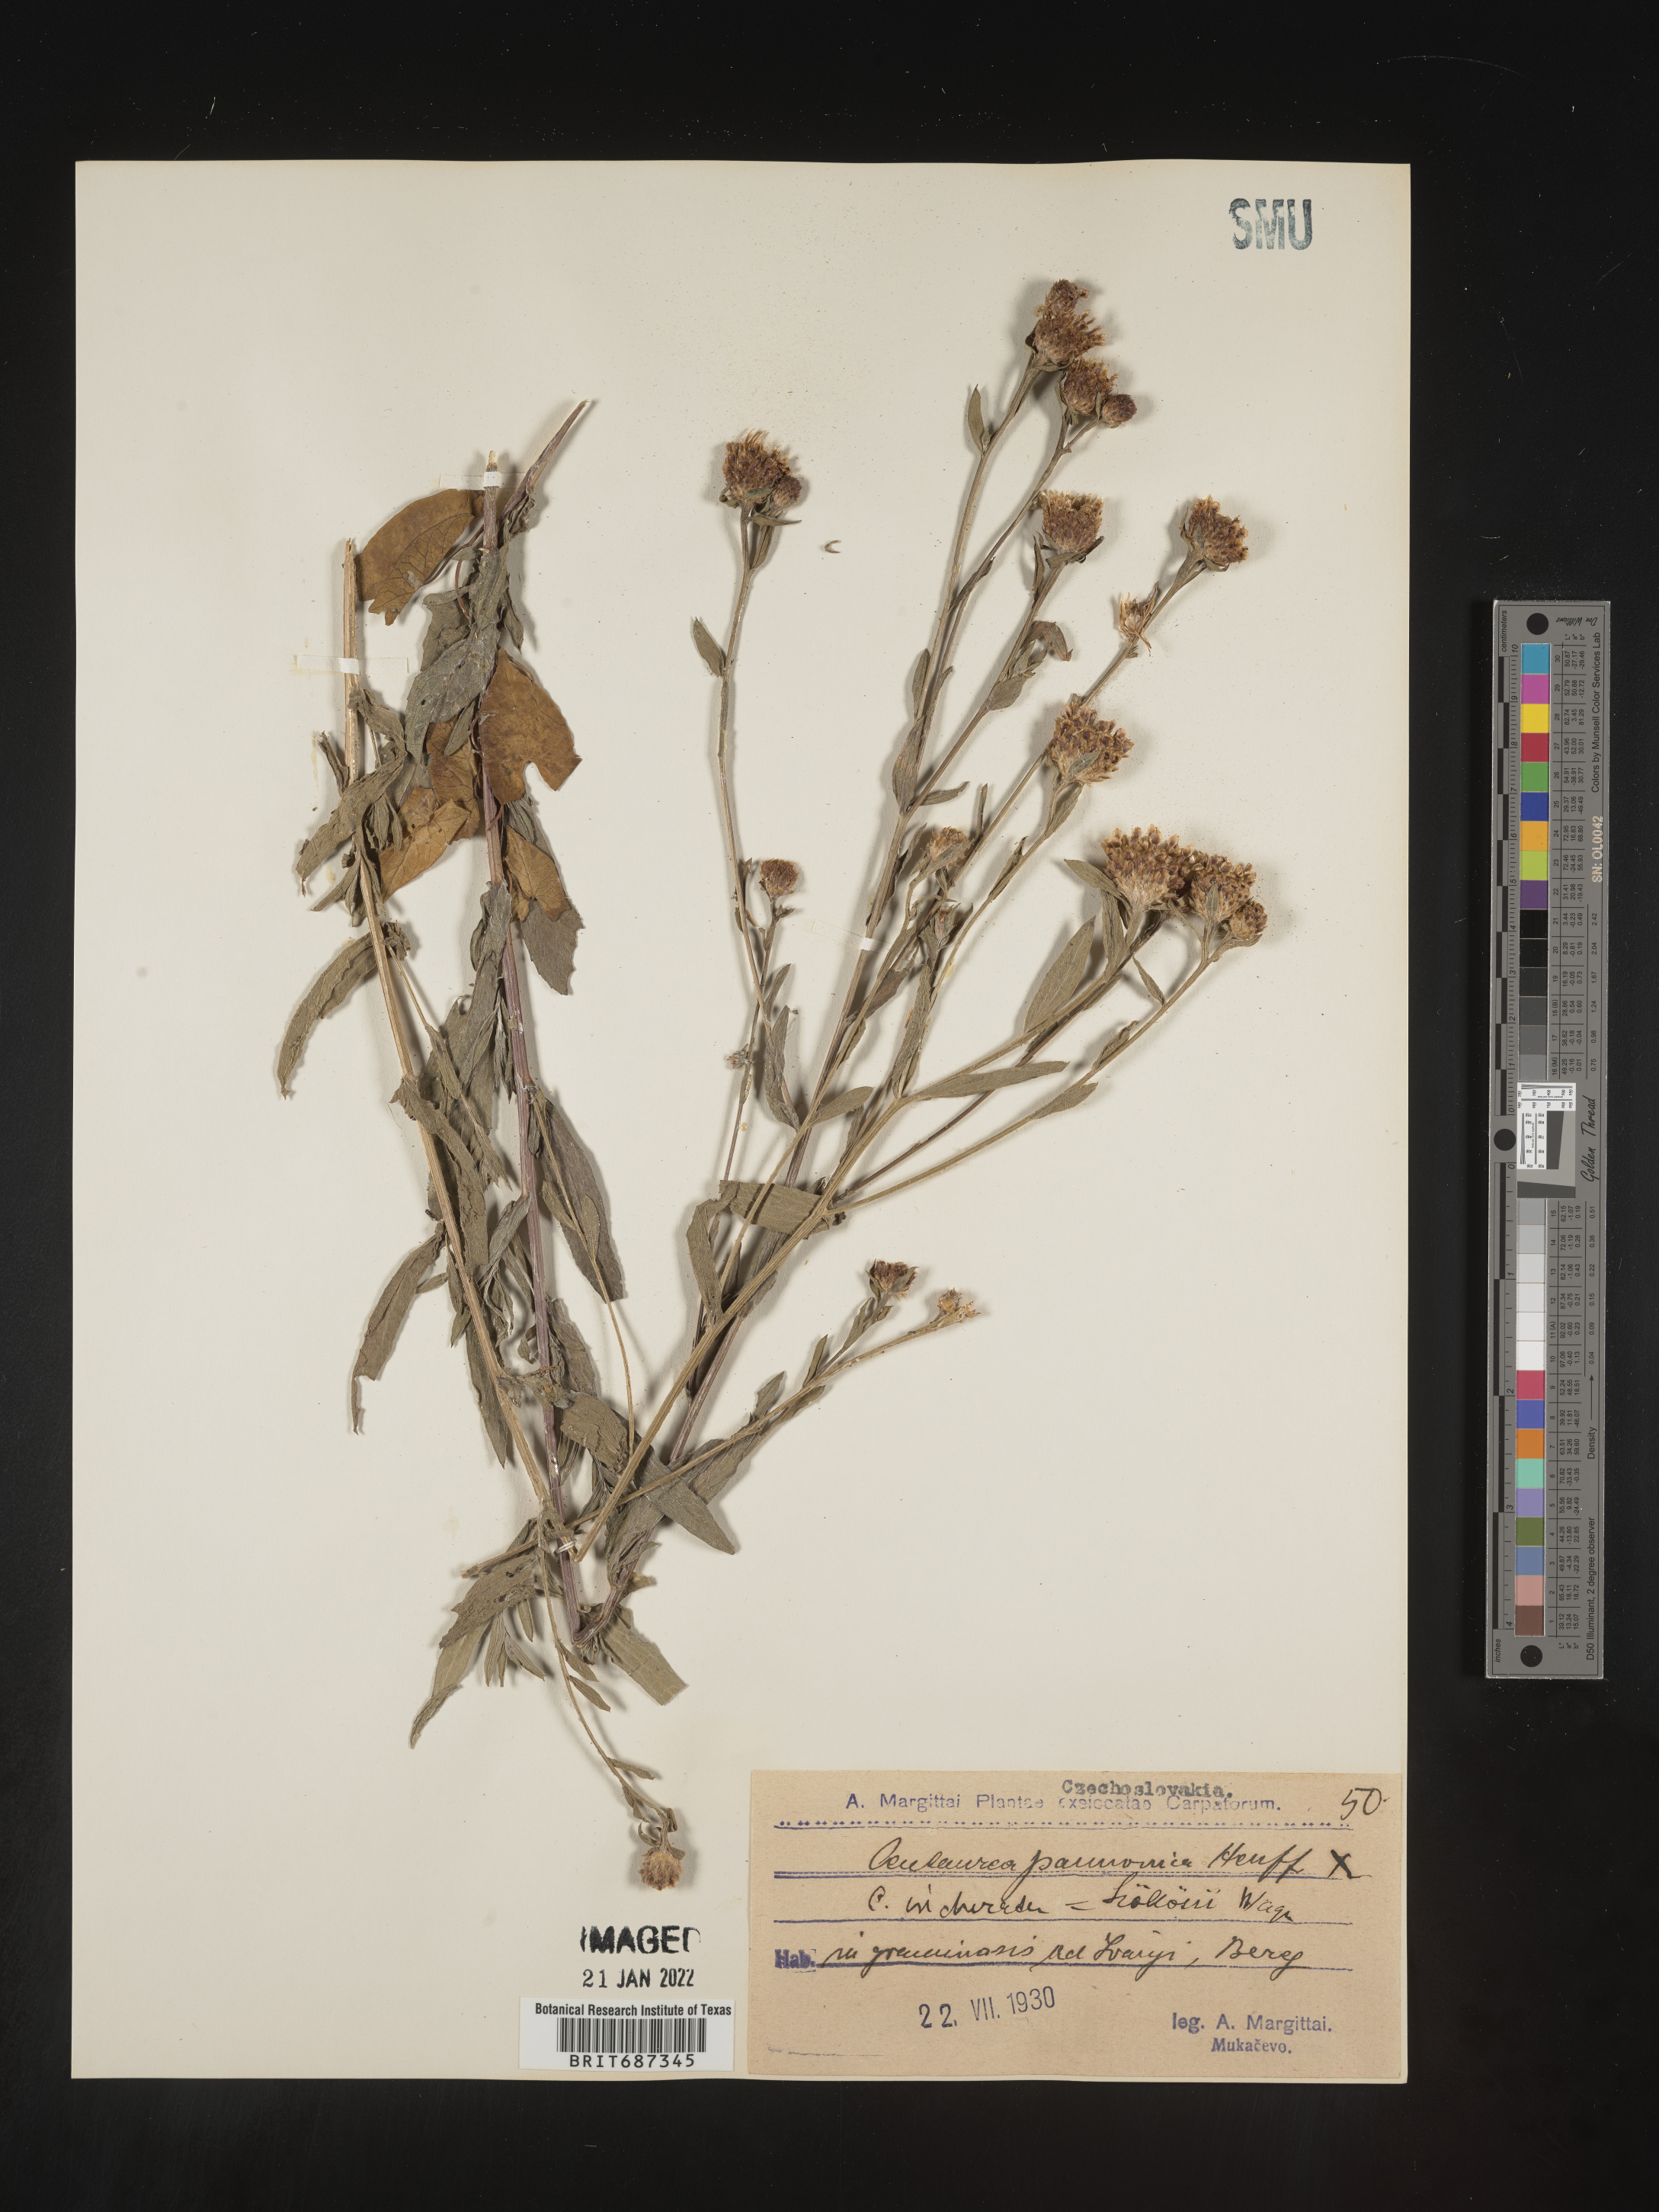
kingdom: Plantae
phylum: Tracheophyta
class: Magnoliopsida
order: Asterales
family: Asteraceae
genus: Centaurea
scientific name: Centaurea
